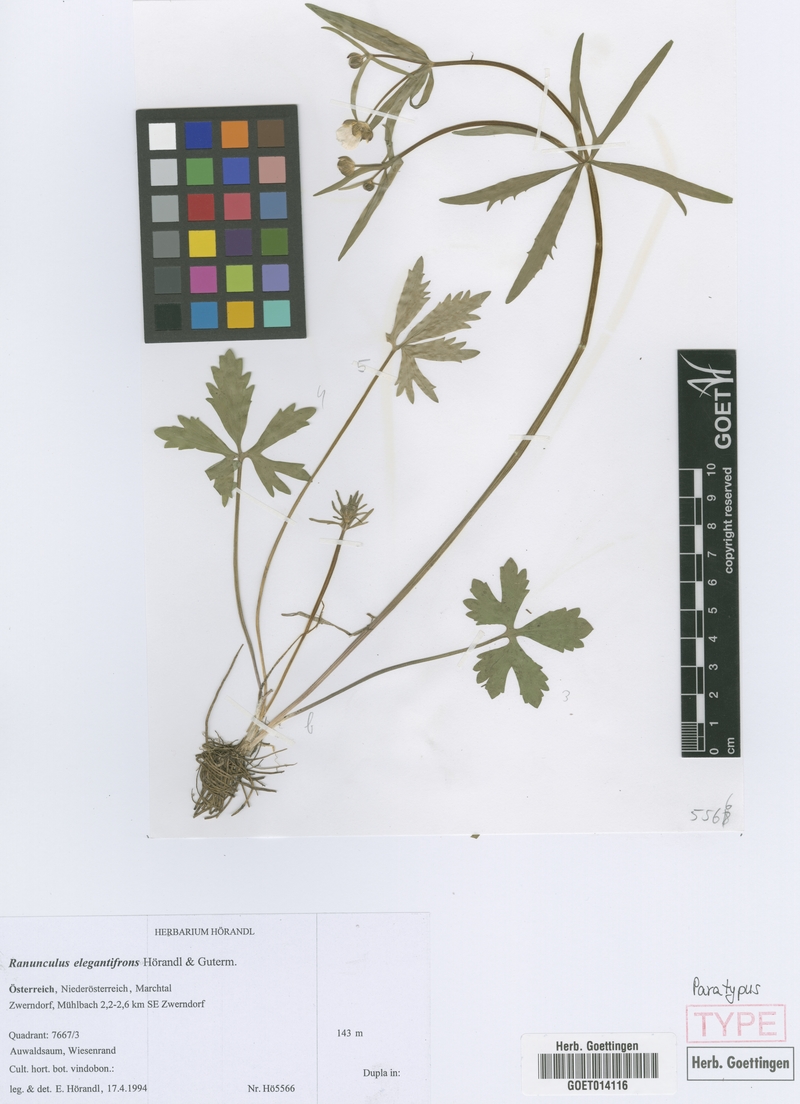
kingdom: Plantae
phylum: Tracheophyta
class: Magnoliopsida
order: Ranunculales
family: Ranunculaceae
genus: Ranunculus
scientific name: Ranunculus elegantifrons
